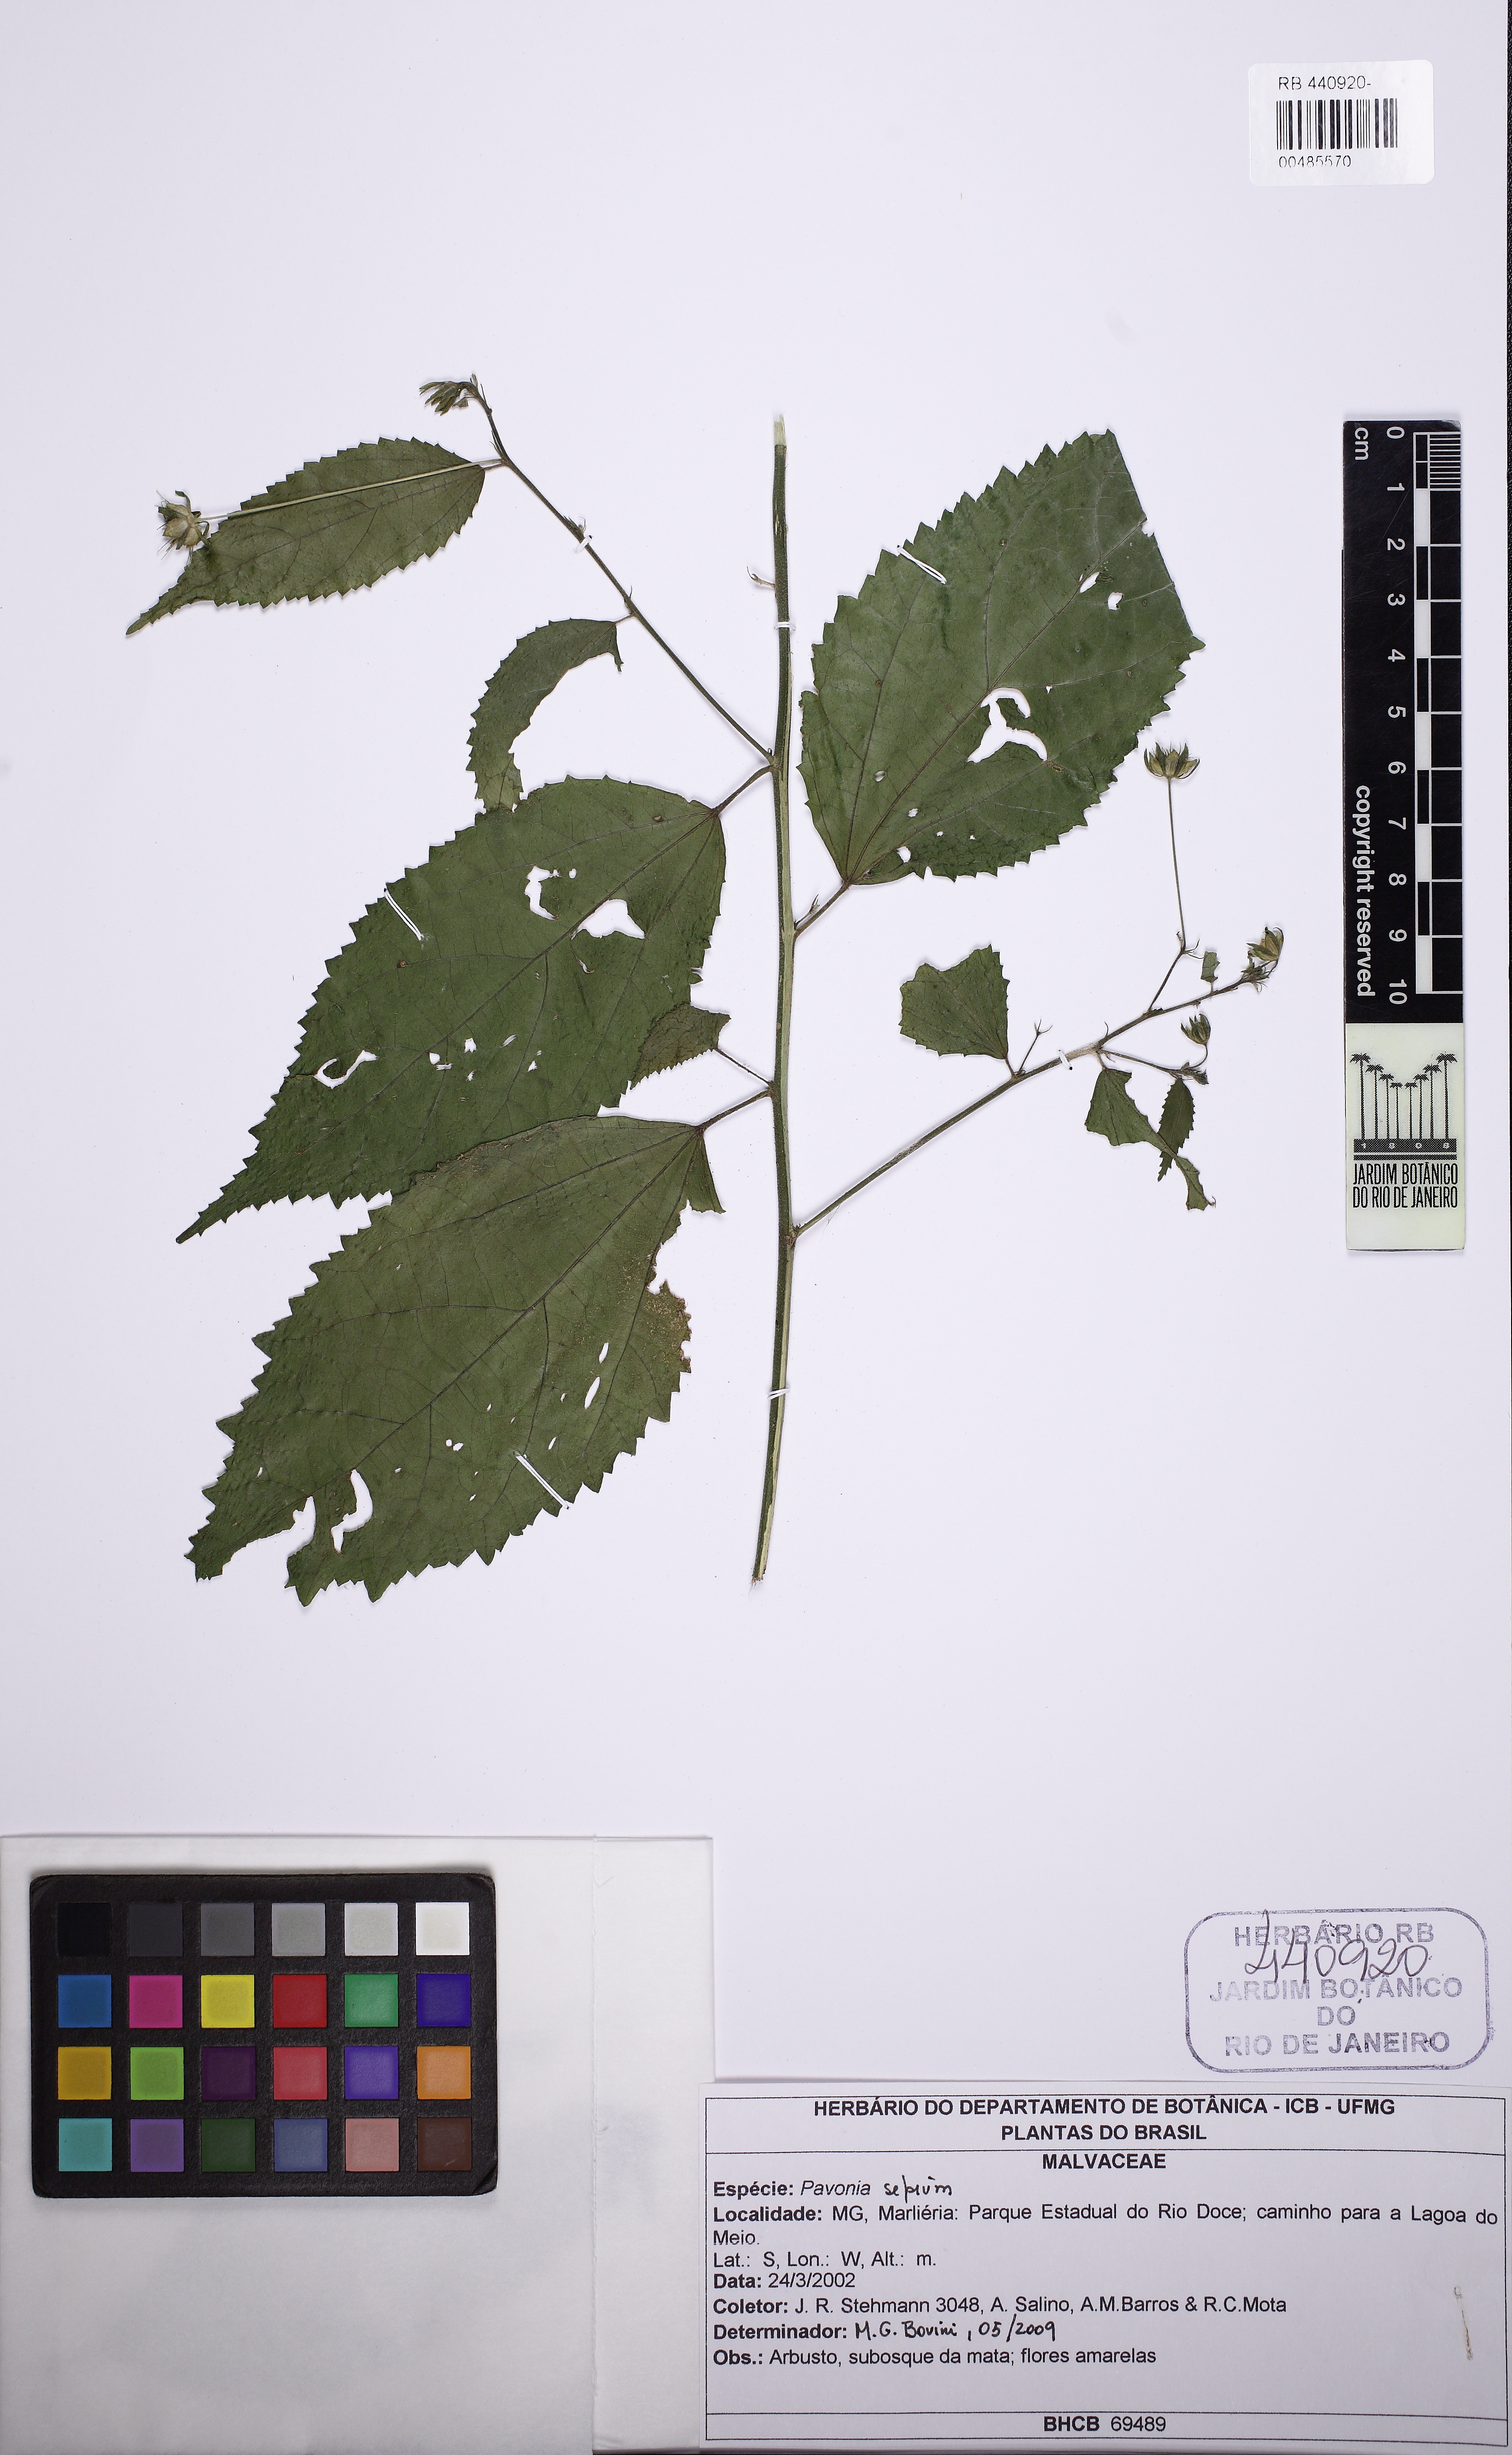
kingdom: Plantae
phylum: Tracheophyta
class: Magnoliopsida
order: Malvales
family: Malvaceae
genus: Pavonia
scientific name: Pavonia
